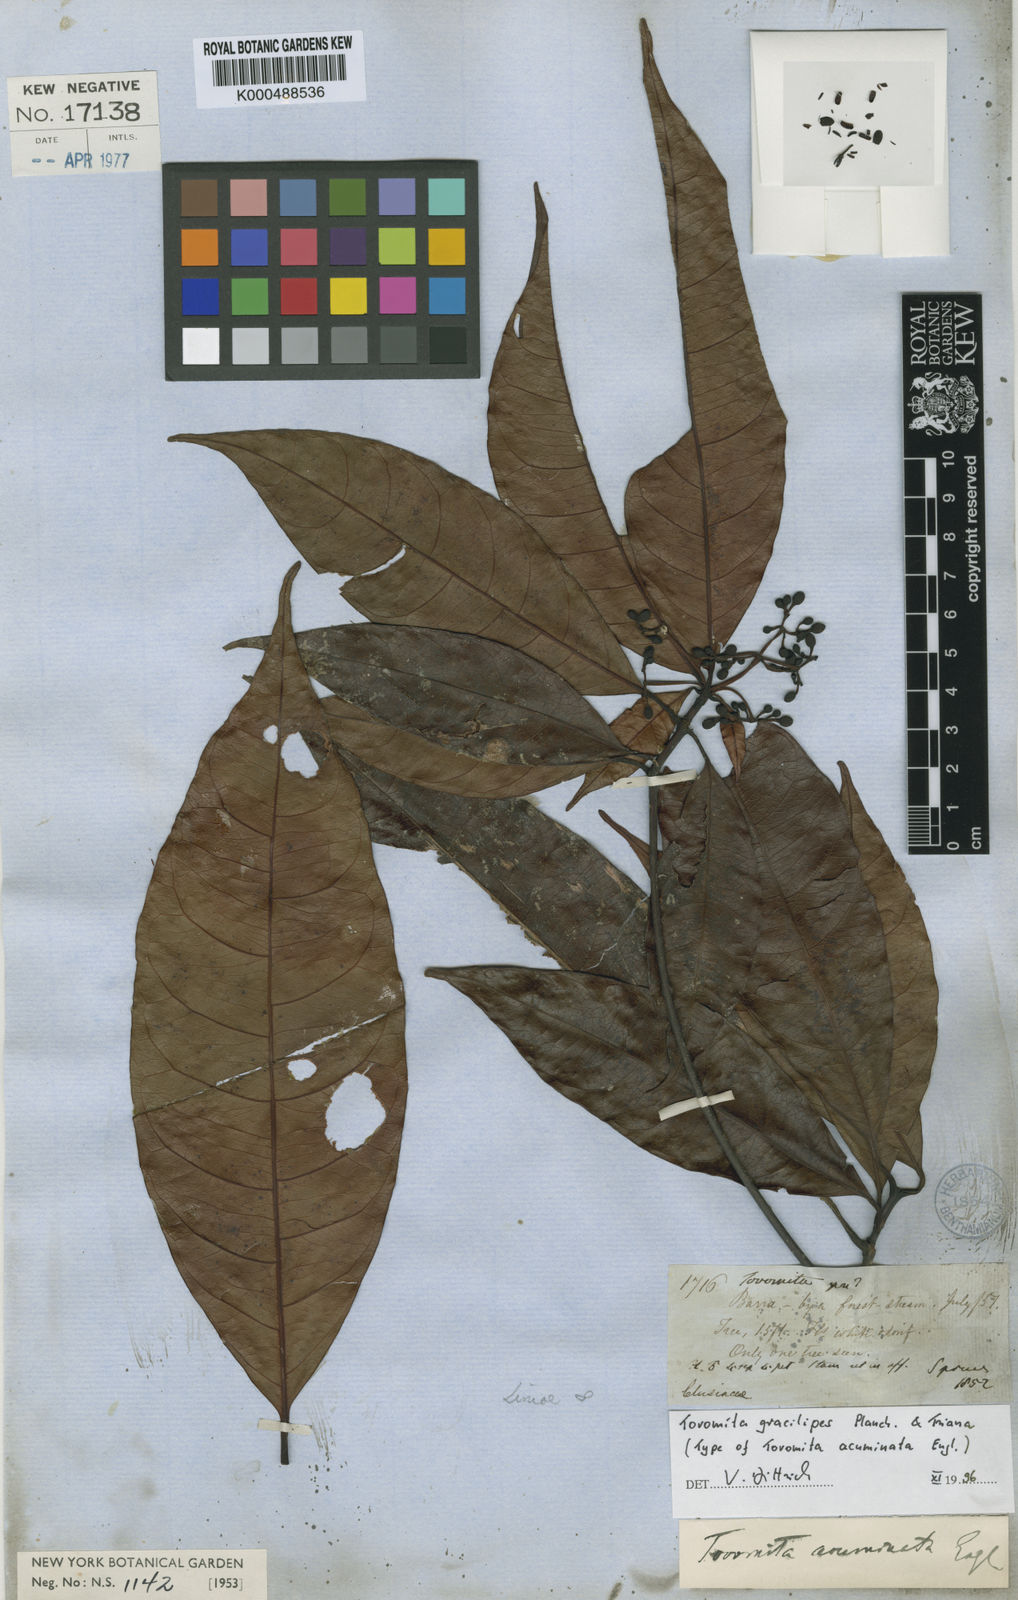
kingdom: Plantae
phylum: Tracheophyta
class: Magnoliopsida
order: Malpighiales
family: Clusiaceae
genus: Tovomita
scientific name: Tovomita gracilipes
